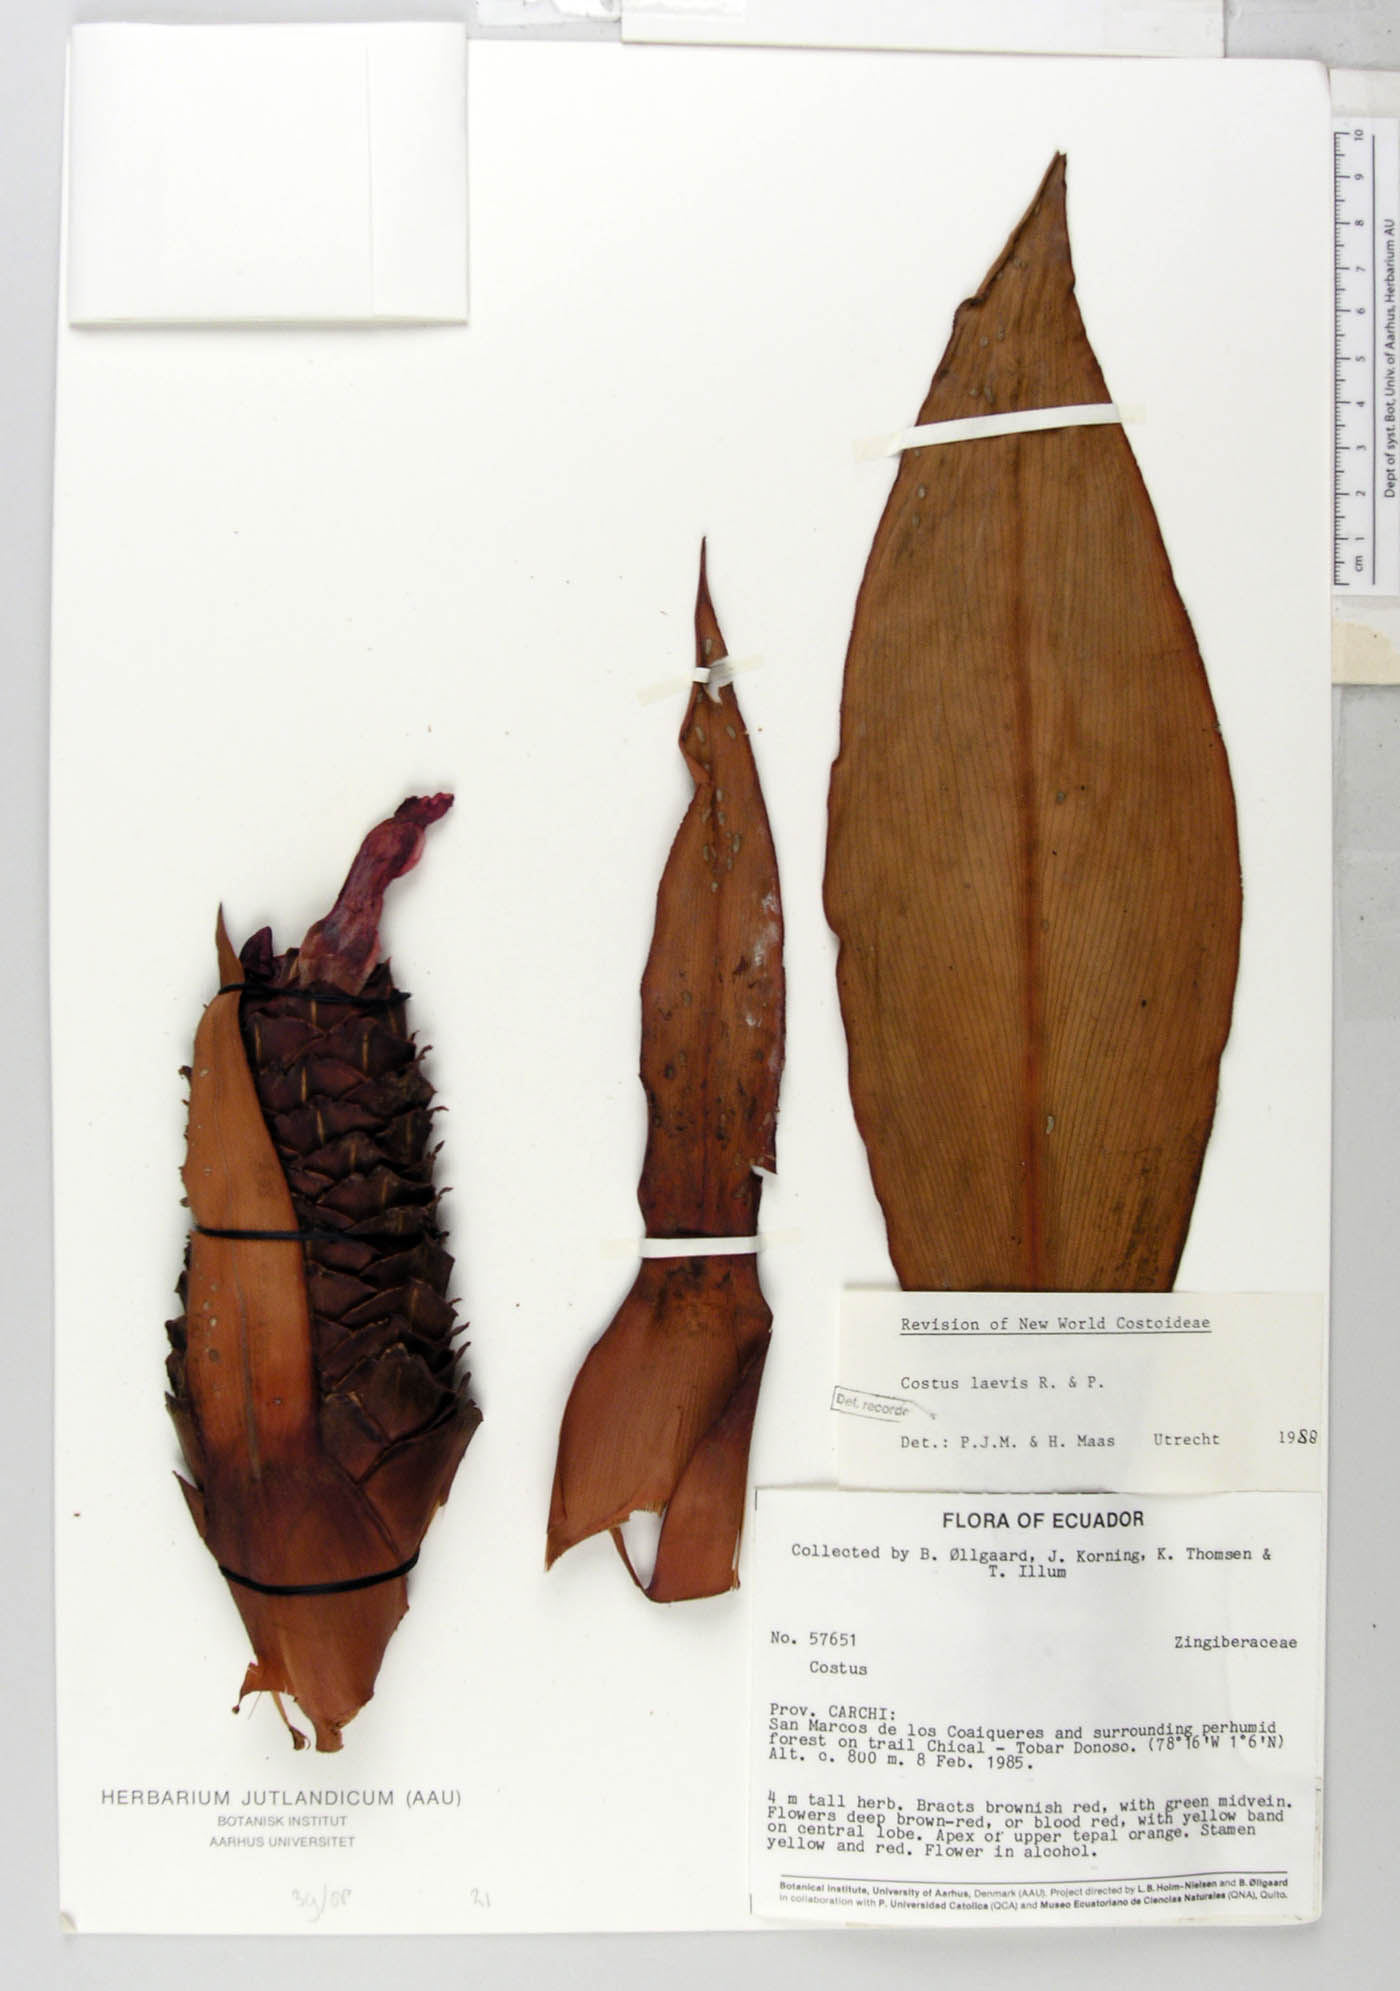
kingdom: Plantae
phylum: Tracheophyta
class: Liliopsida
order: Zingiberales
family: Costaceae
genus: Costus
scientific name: Costus laevis
